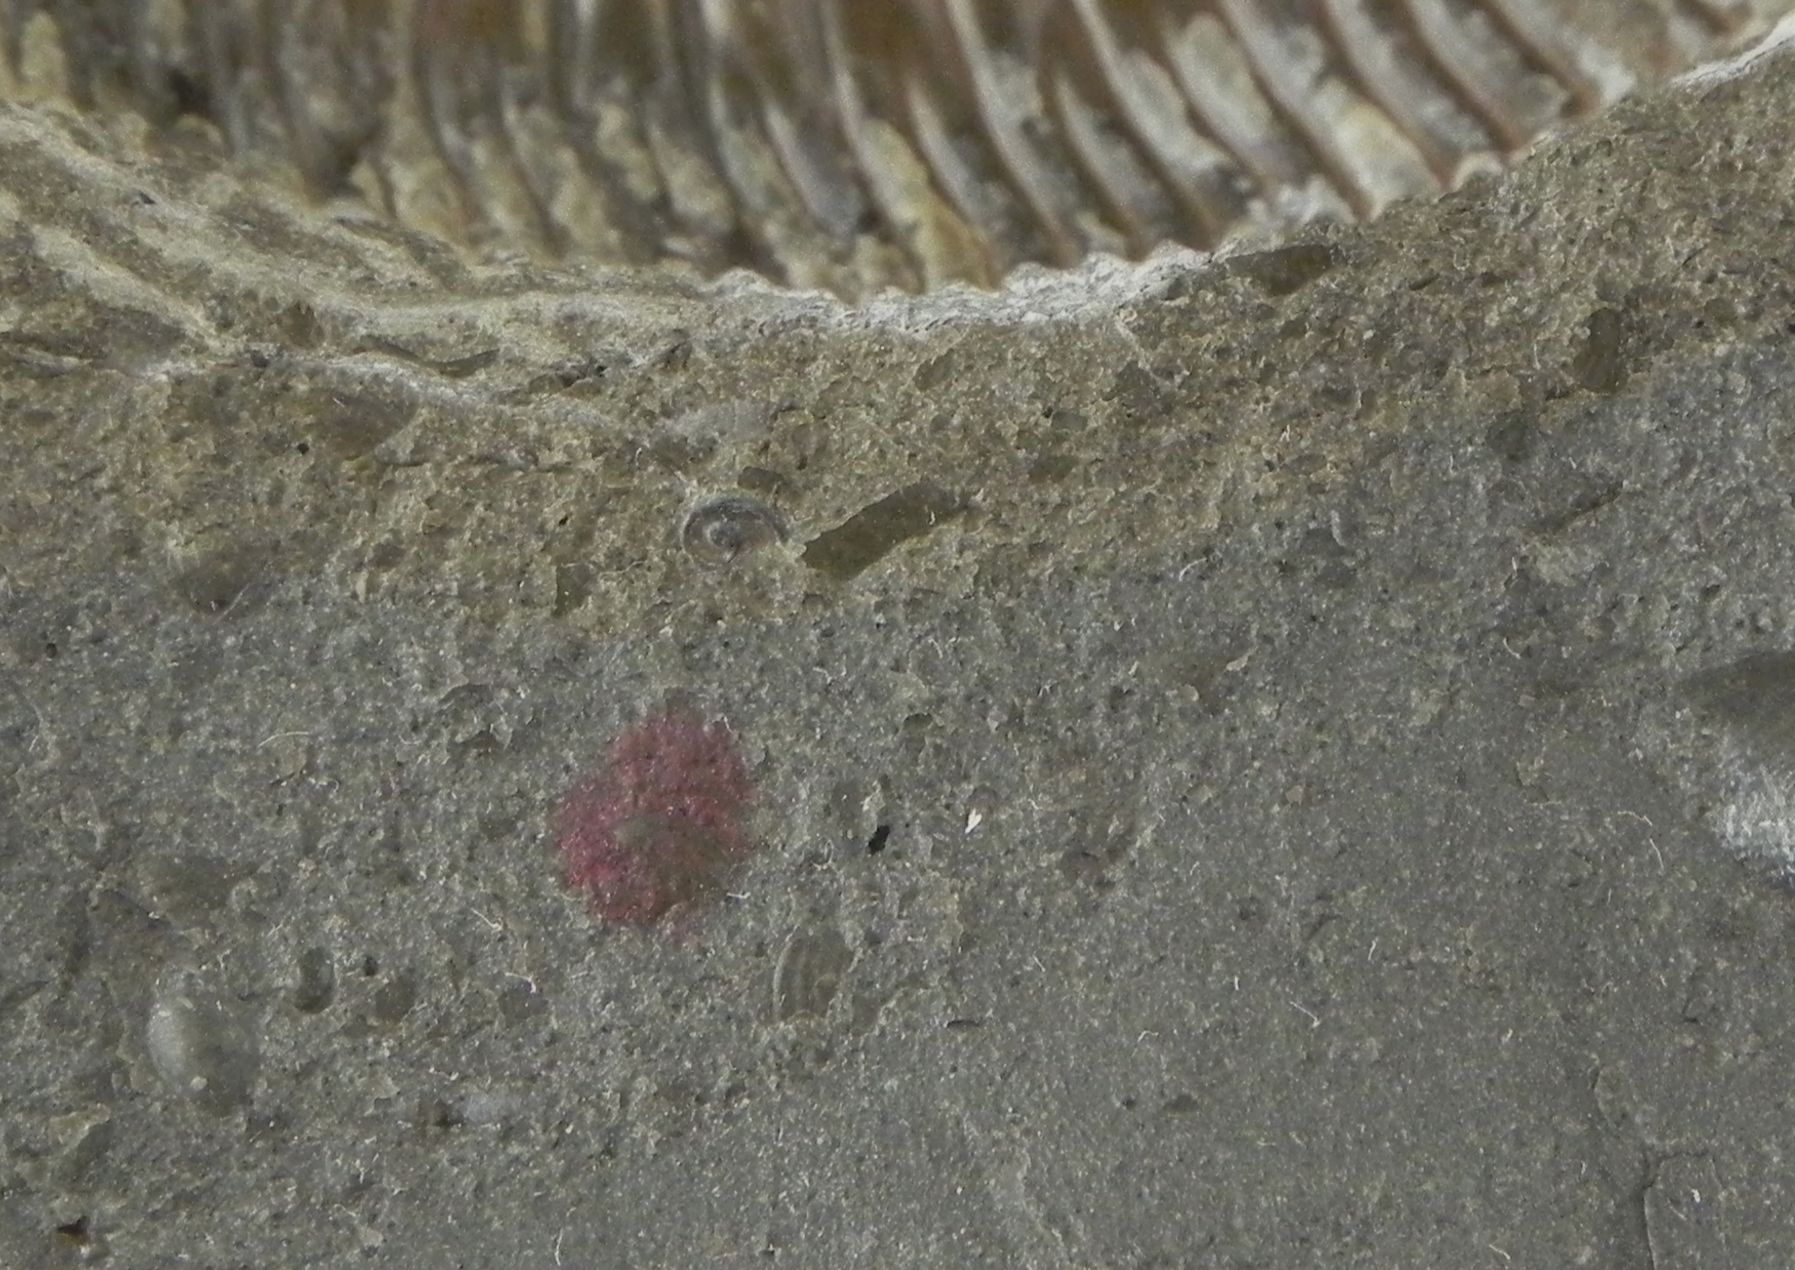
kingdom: Animalia
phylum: Mollusca
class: Cephalopoda
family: Dactylioceratidae
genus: Dactylioceras
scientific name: Dactylioceras
